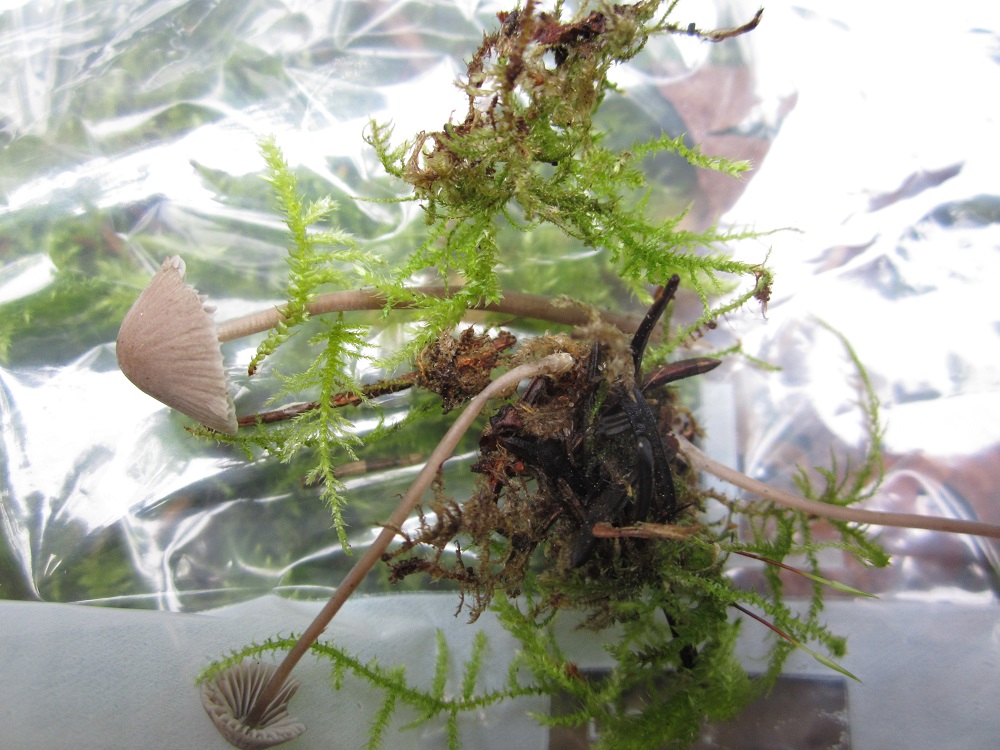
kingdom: Fungi
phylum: Basidiomycota
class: Agaricomycetes
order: Agaricales
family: Mycenaceae
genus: Mycena
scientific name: Mycena leptocephala
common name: klor-huesvamp
